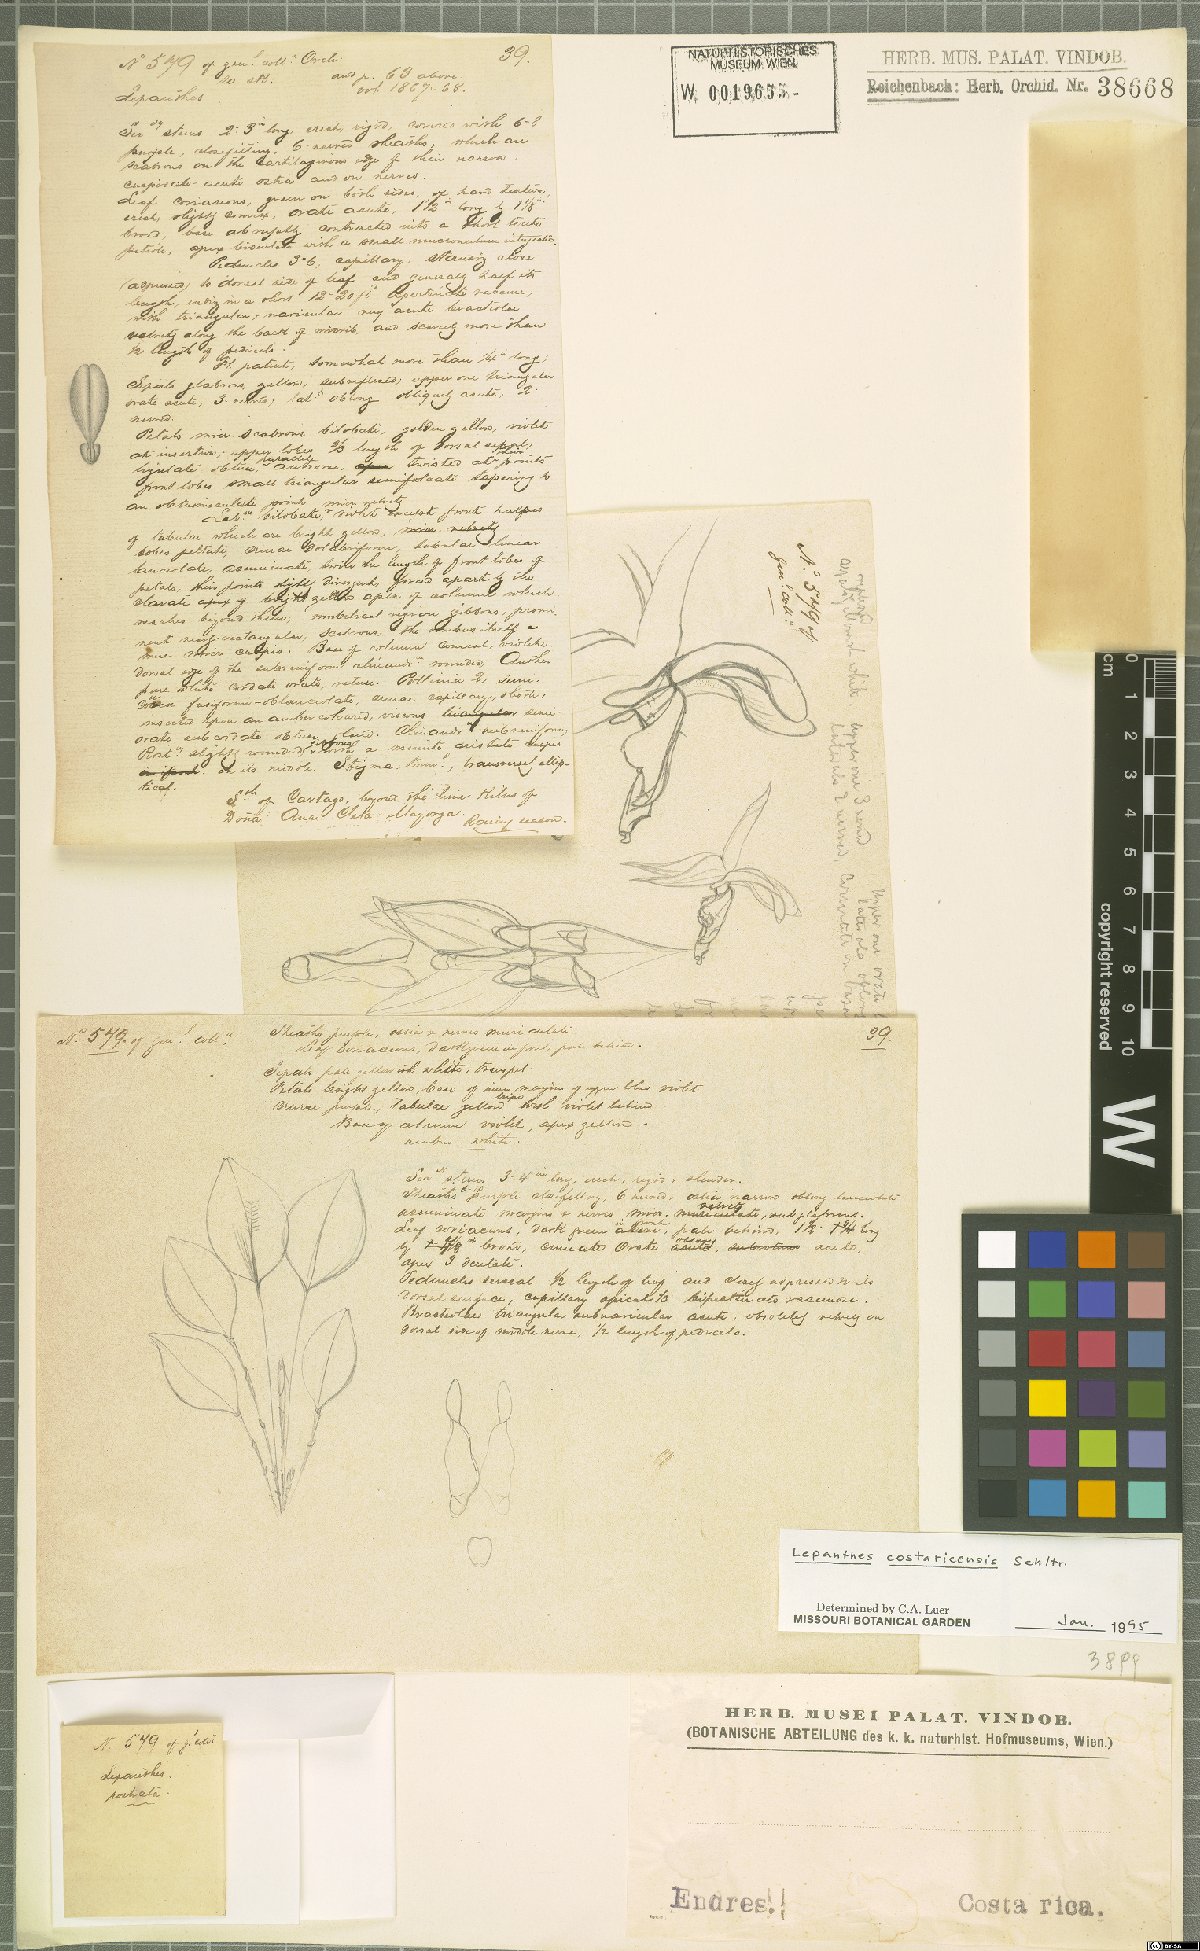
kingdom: Plantae
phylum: Tracheophyta
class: Liliopsida
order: Asparagales
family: Orchidaceae
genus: Lepanthes
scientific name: Lepanthes costaricensis
